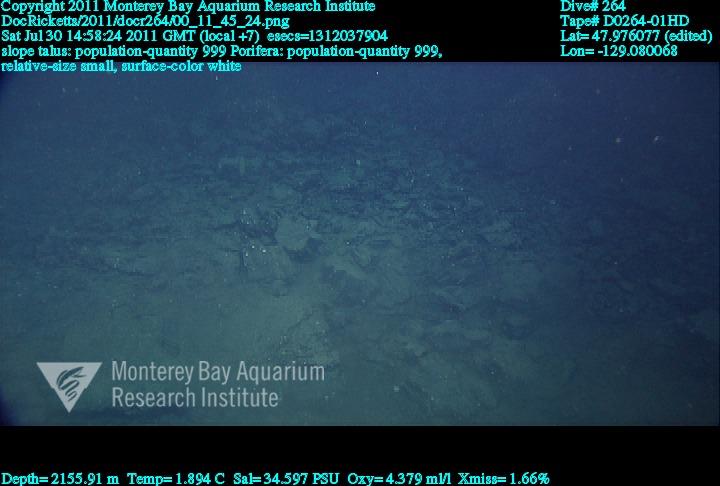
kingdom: Animalia
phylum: Porifera
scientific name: Porifera
